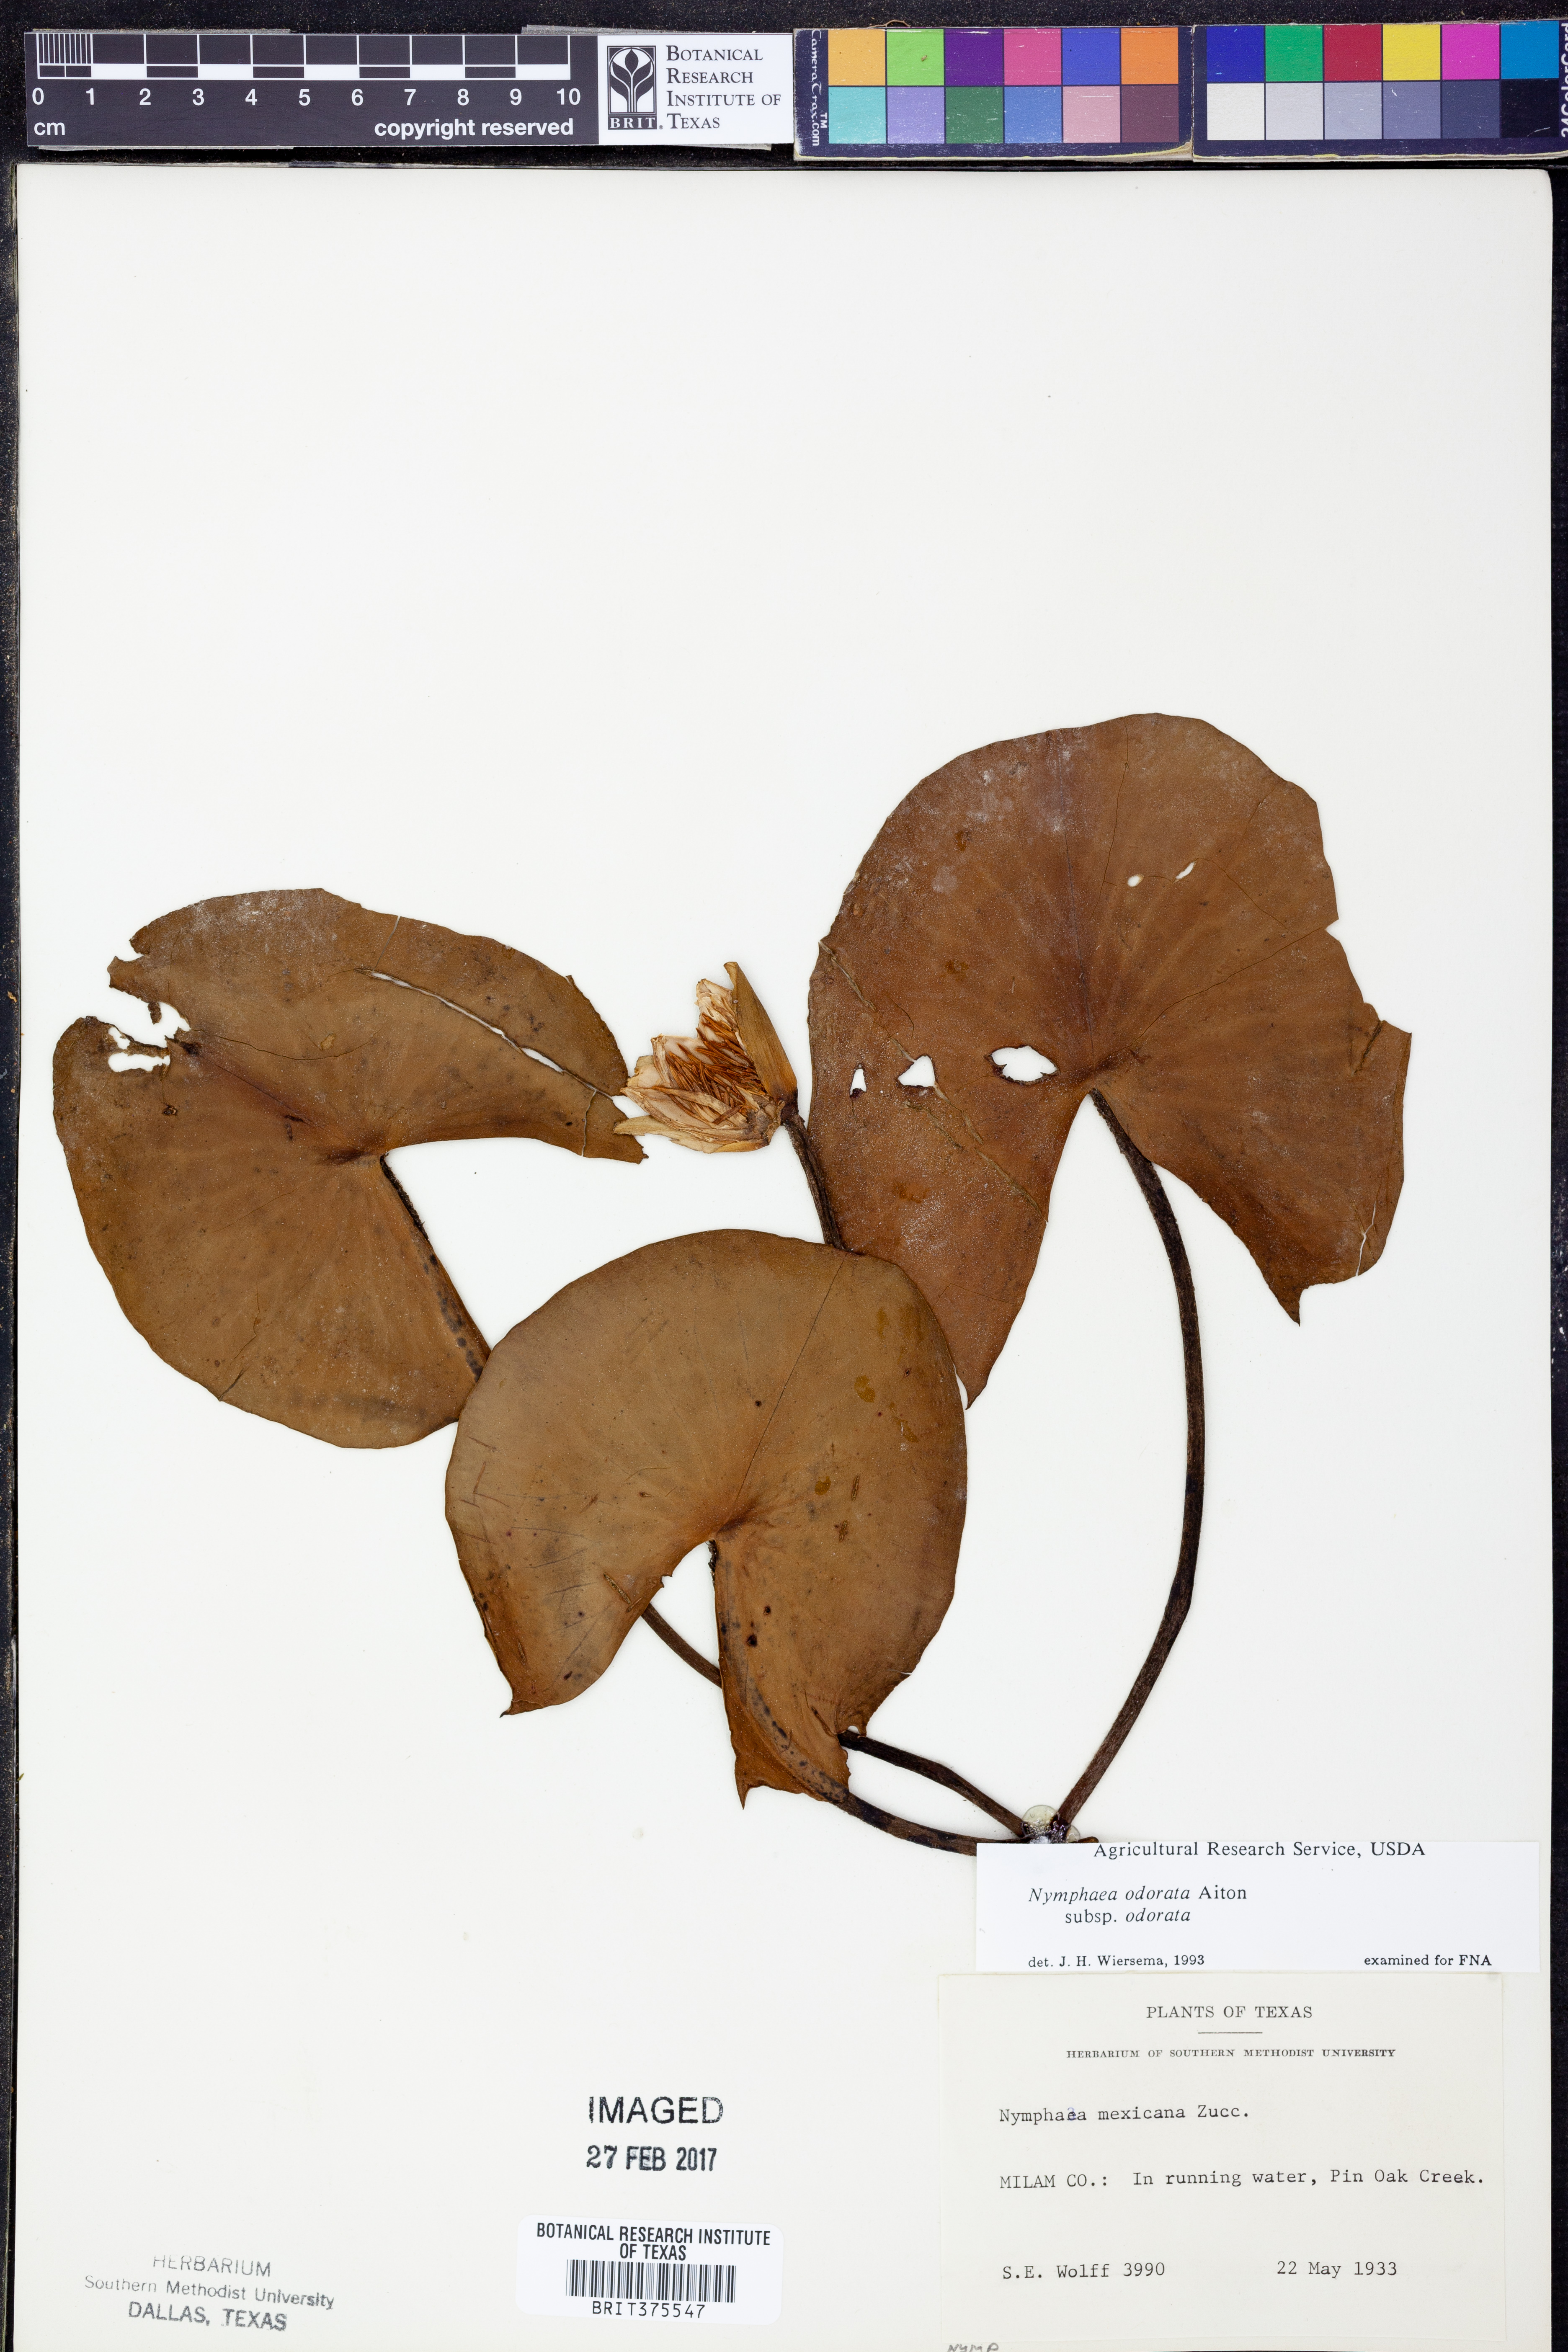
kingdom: Plantae
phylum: Tracheophyta
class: Magnoliopsida
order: Nymphaeales
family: Nymphaeaceae
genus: Nymphaea
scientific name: Nymphaea odorata
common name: Fragrant water-lily
